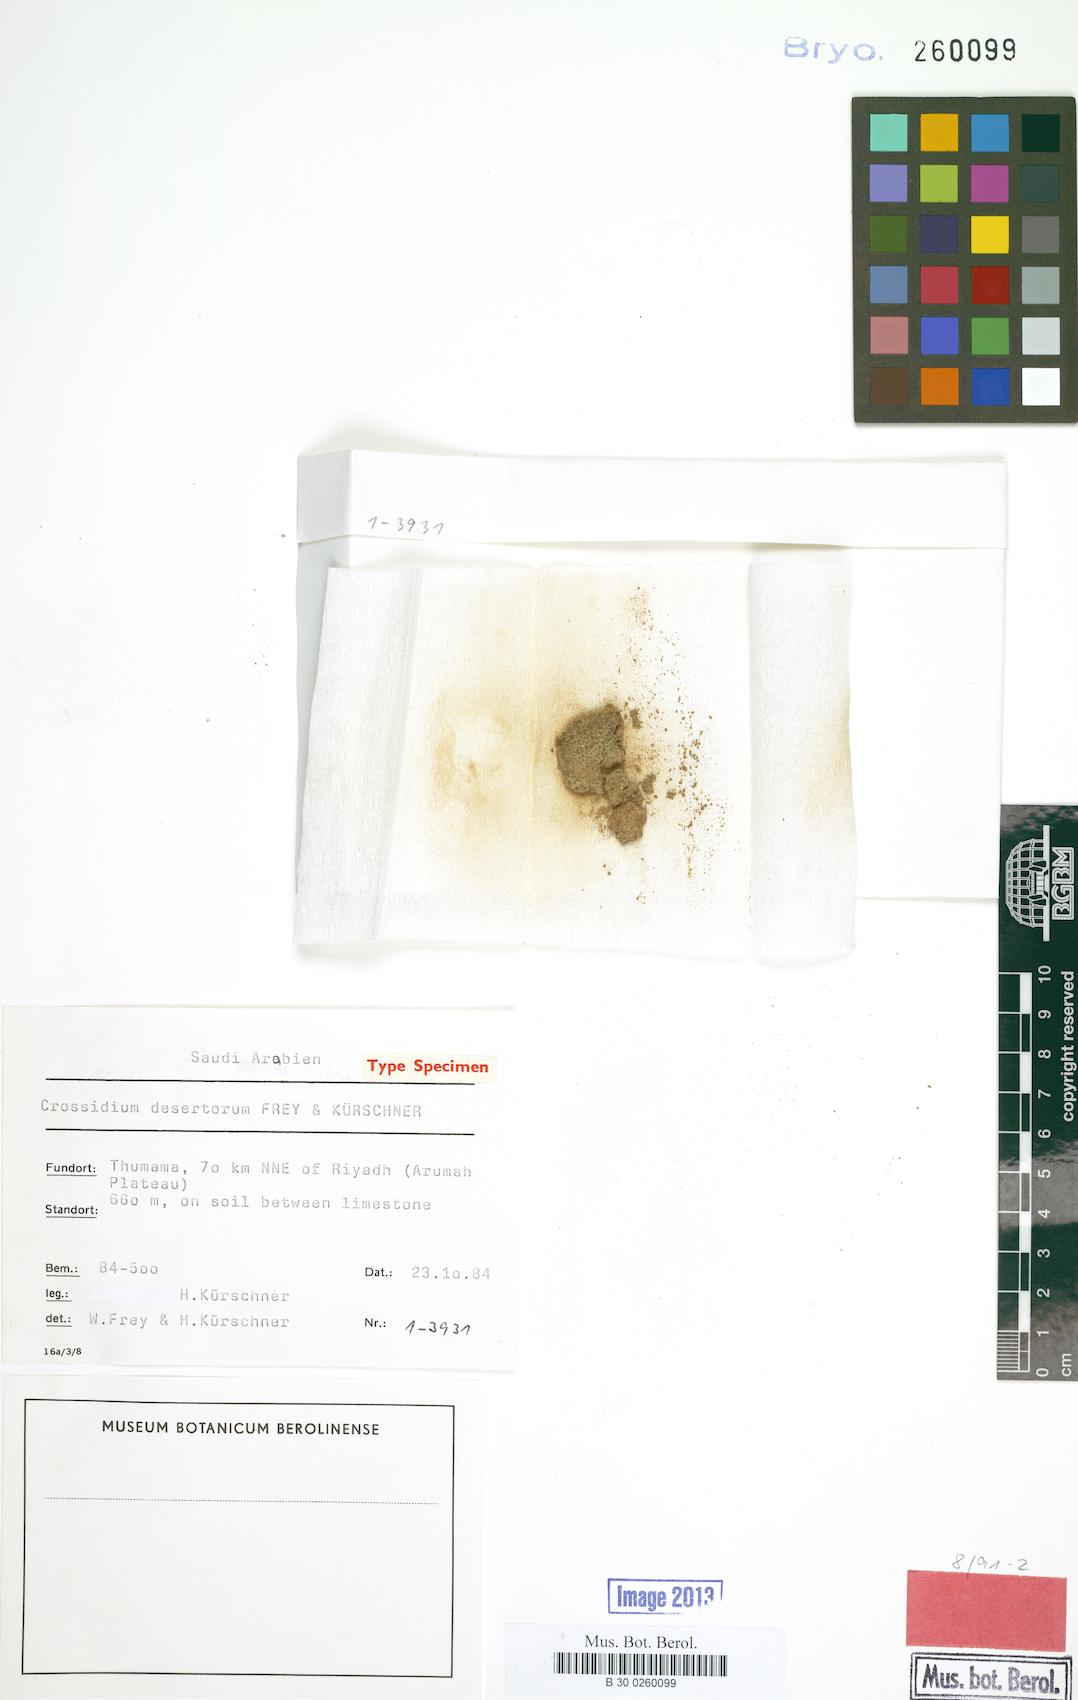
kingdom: Plantae
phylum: Bryophyta
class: Bryopsida
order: Pottiales
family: Pottiaceae
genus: Crossidium
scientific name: Crossidium deserti
